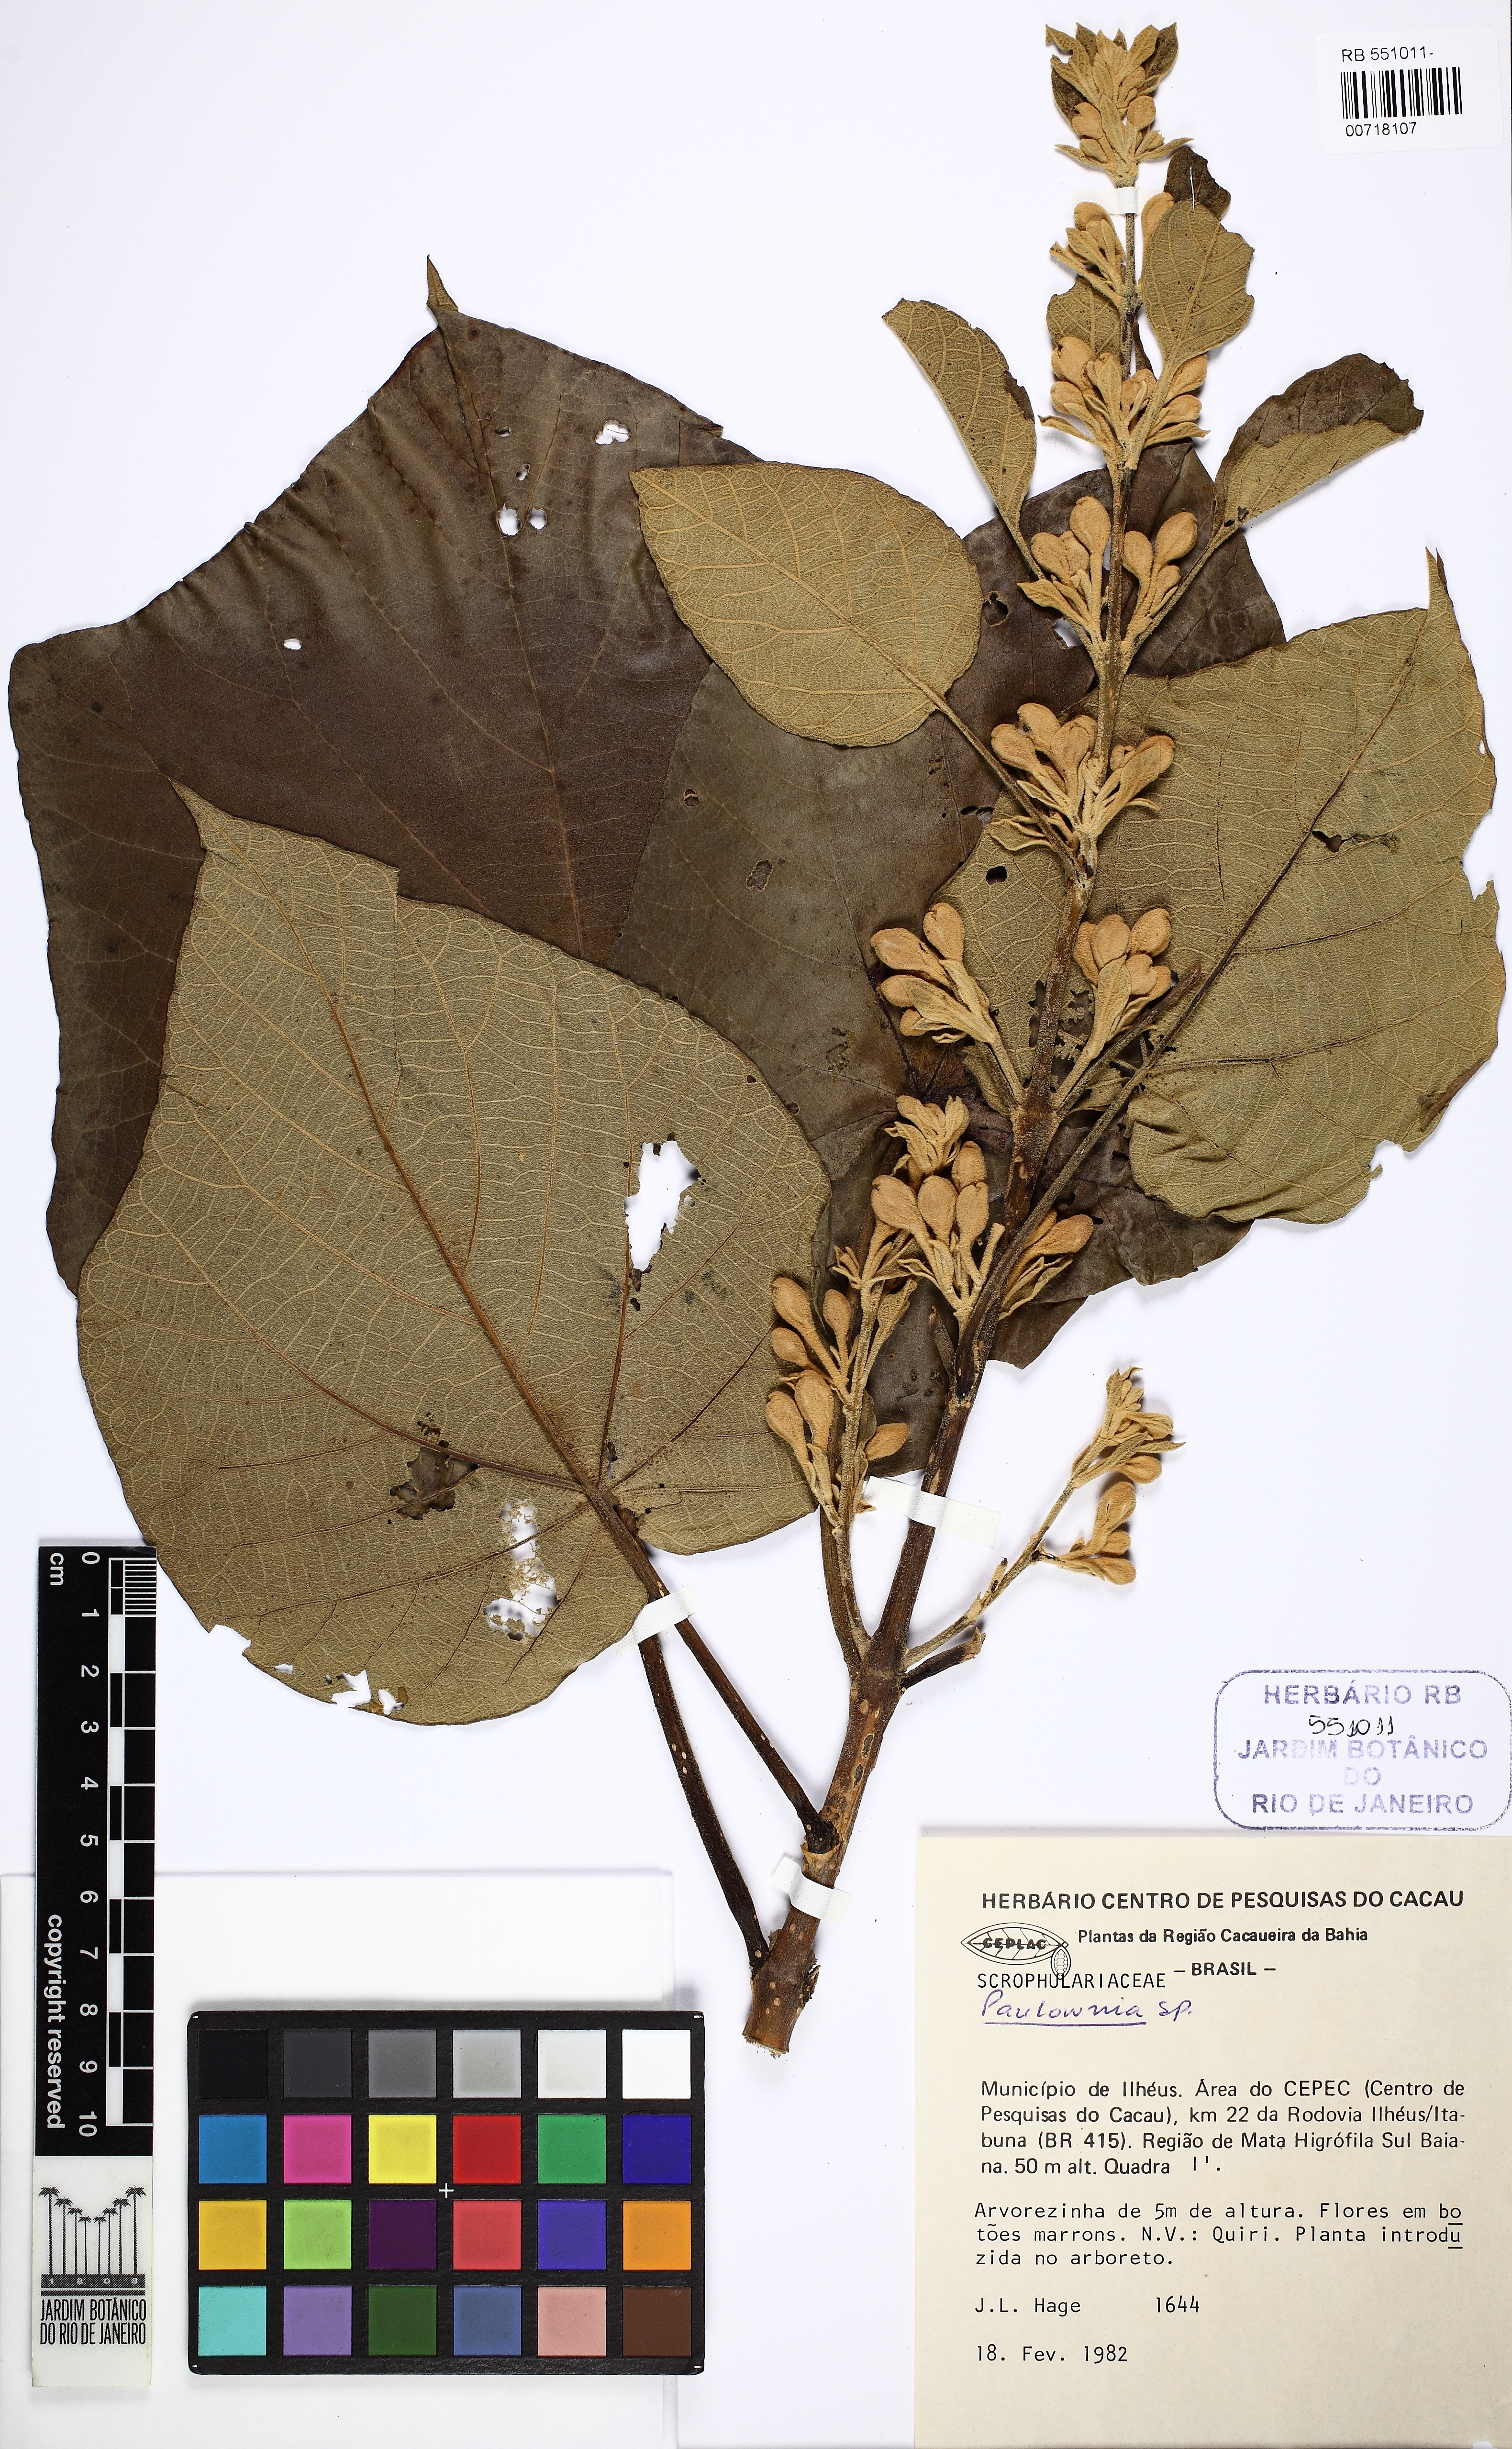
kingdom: Plantae
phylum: Tracheophyta
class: Magnoliopsida
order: Lamiales
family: Paulowniaceae
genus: Paulownia
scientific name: Paulownia
